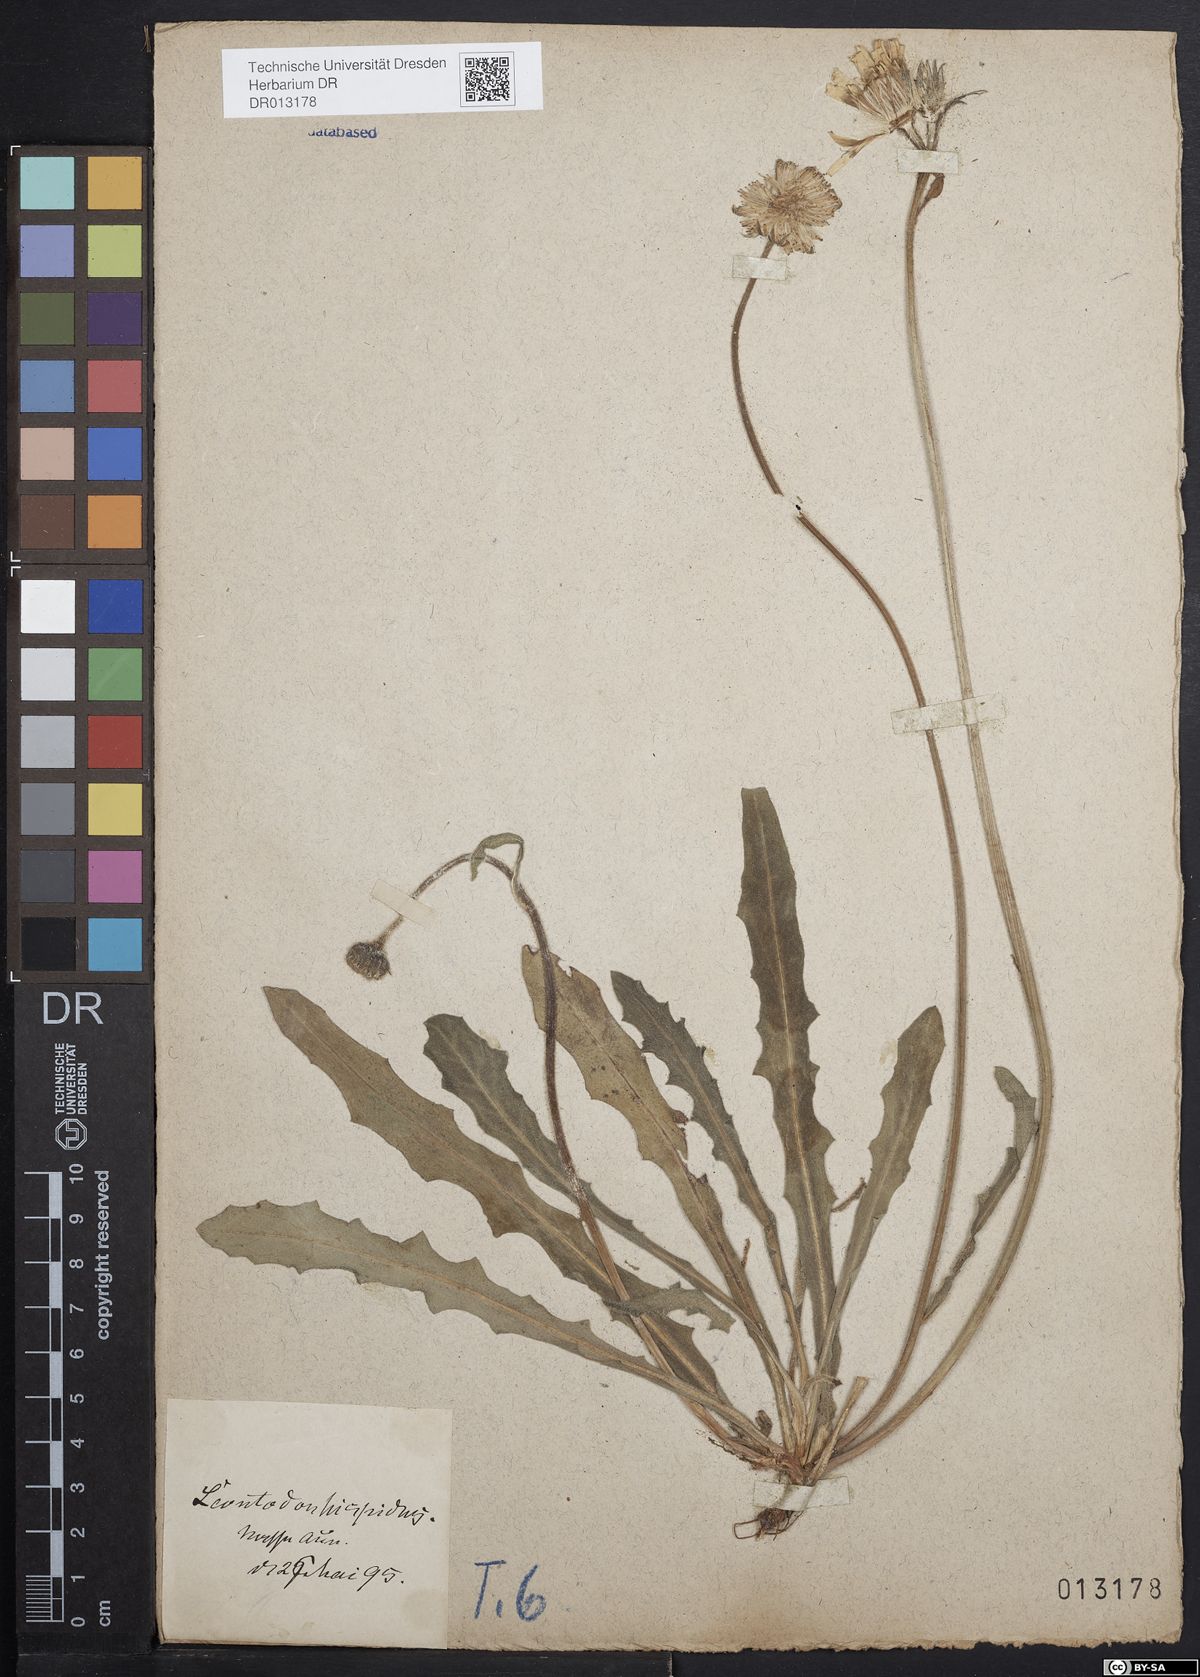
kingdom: Plantae
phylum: Tracheophyta
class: Magnoliopsida
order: Asterales
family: Asteraceae
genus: Leontodon
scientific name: Leontodon hispidus
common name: Rough hawkbit
